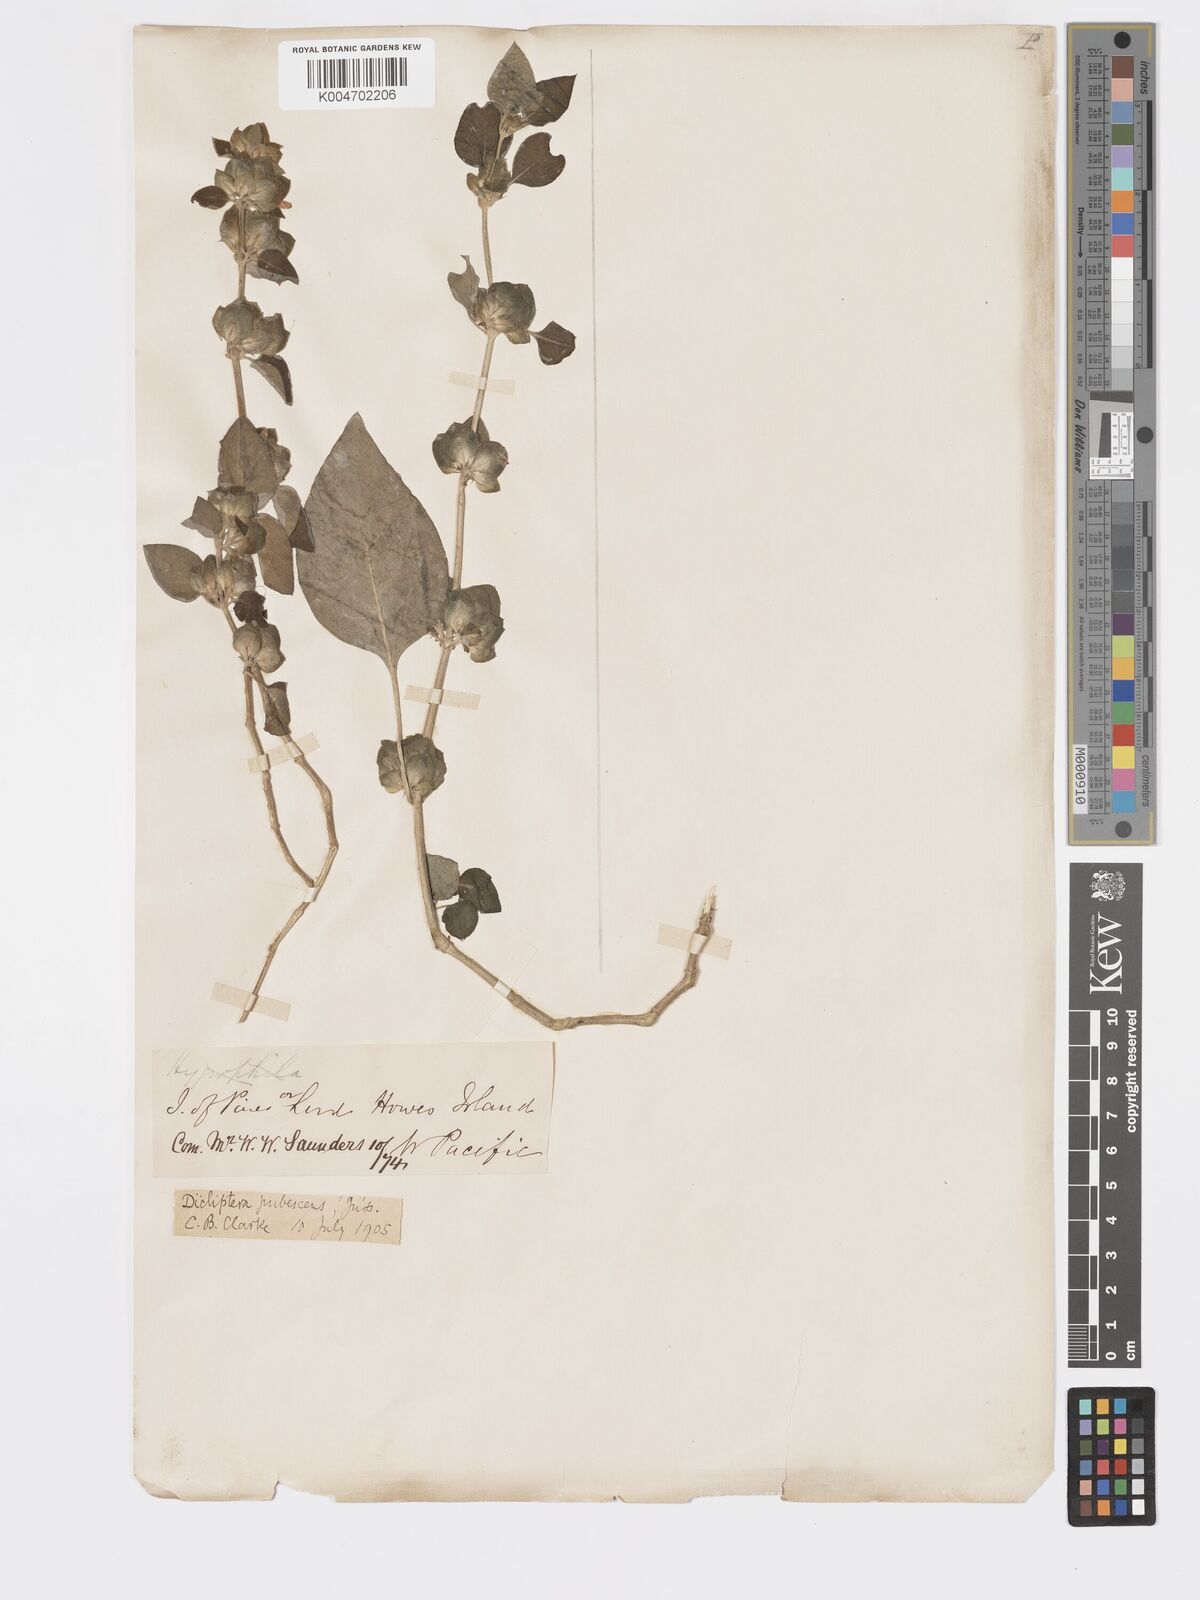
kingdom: Plantae
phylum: Tracheophyta
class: Magnoliopsida
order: Lamiales
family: Acanthaceae
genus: Rungia
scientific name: Rungia parviflora
